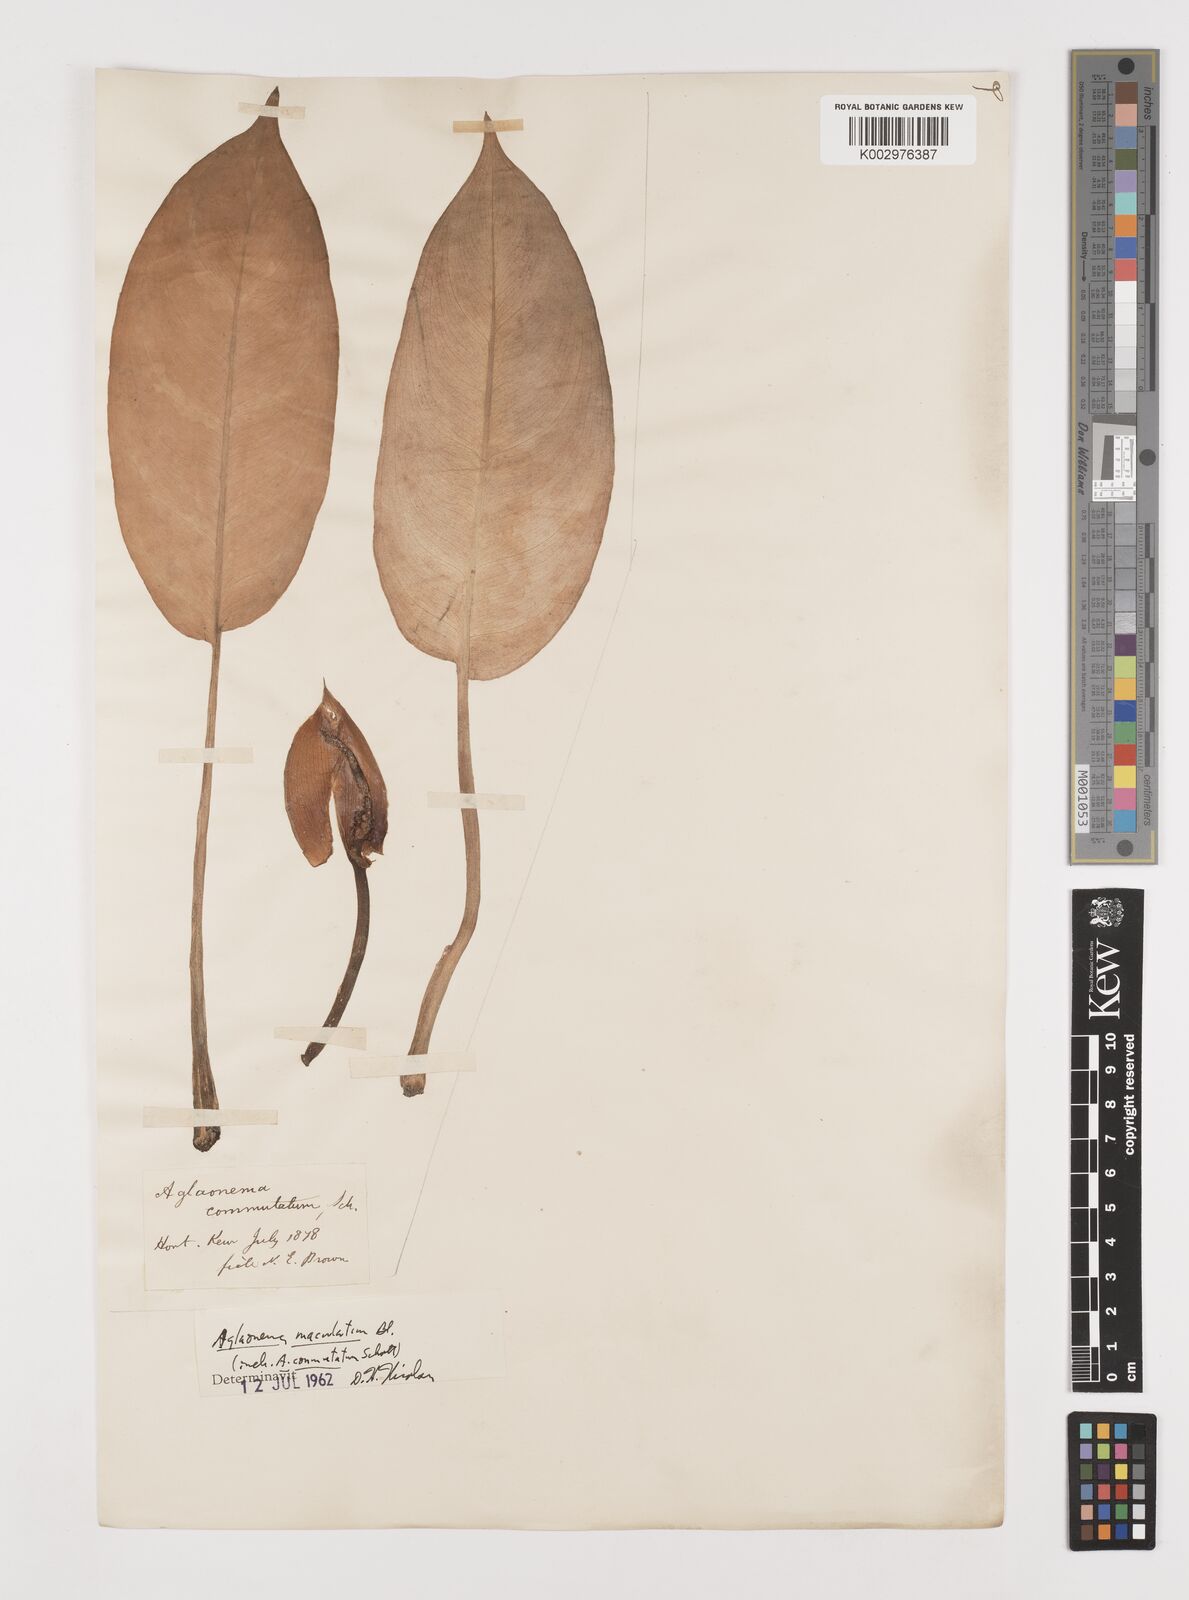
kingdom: Plantae
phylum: Tracheophyta
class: Liliopsida
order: Alismatales
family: Araceae
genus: Aglaonema
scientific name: Aglaonema commutatum
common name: Philippine evergreen
